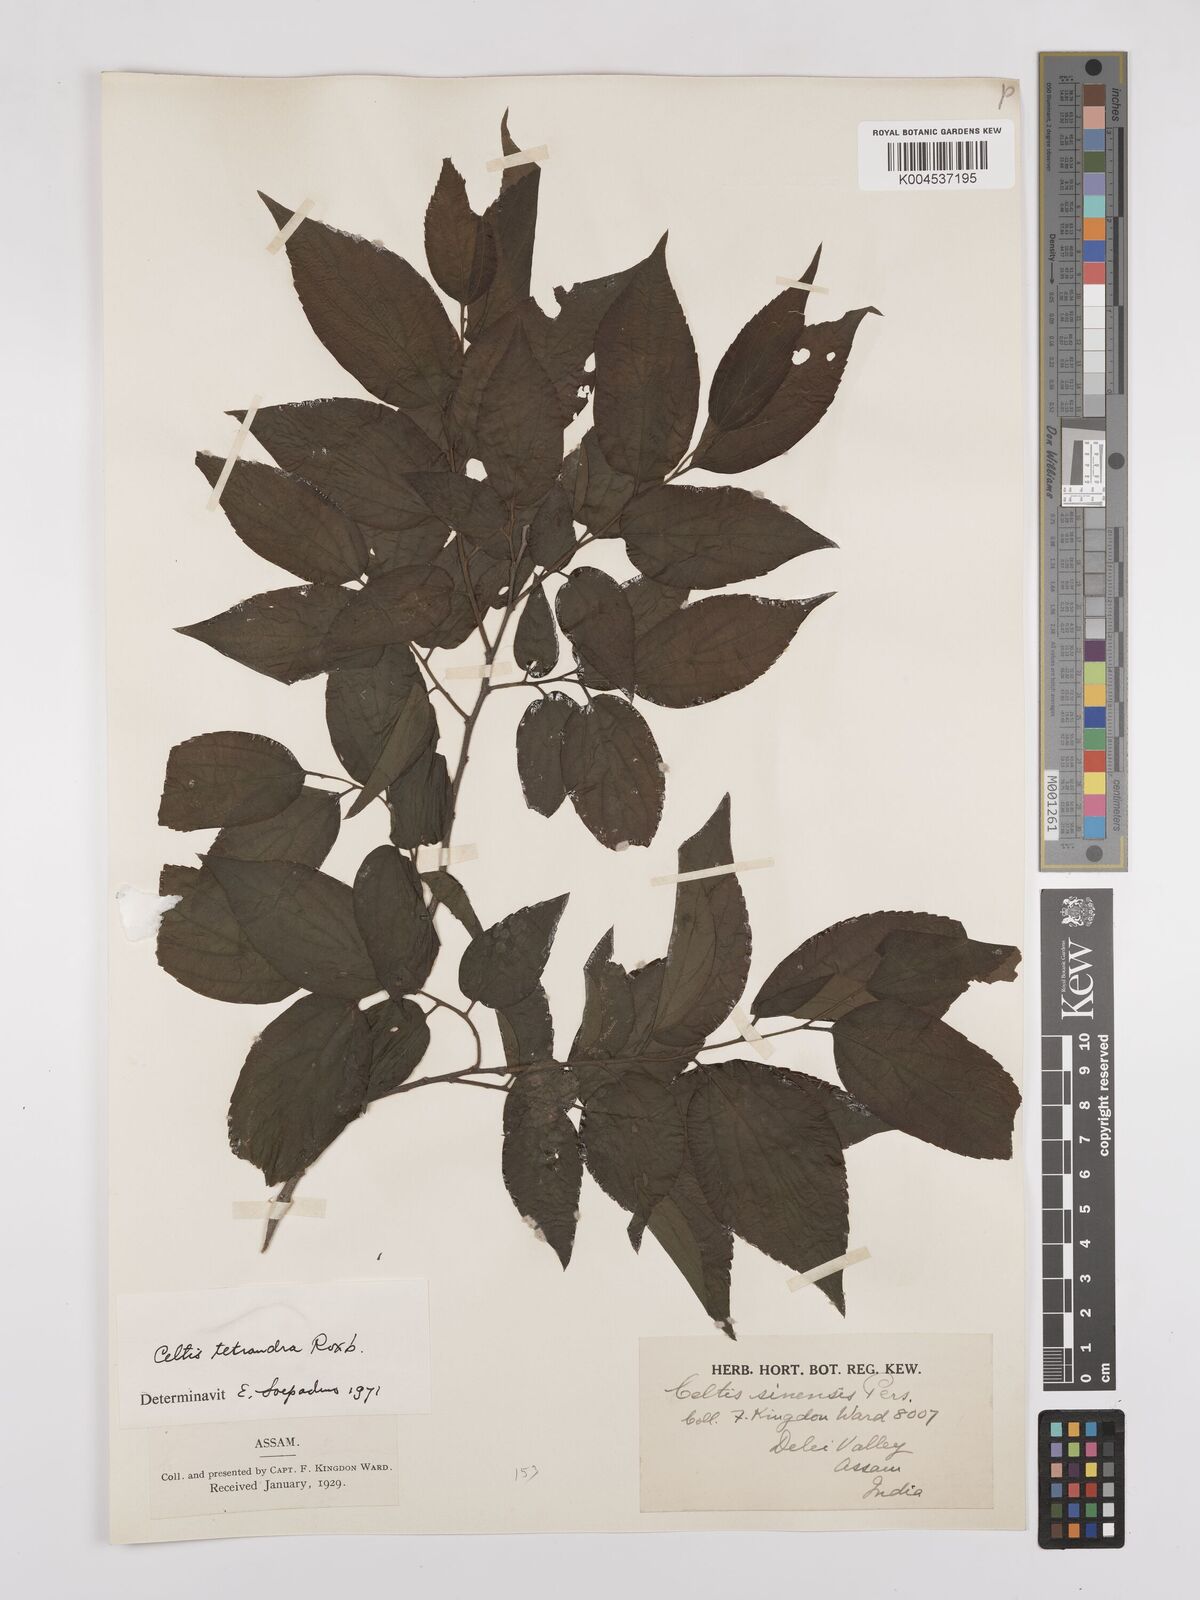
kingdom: Plantae
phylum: Tracheophyta
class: Magnoliopsida
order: Rosales
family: Cannabaceae
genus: Celtis
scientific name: Celtis tetrandra
